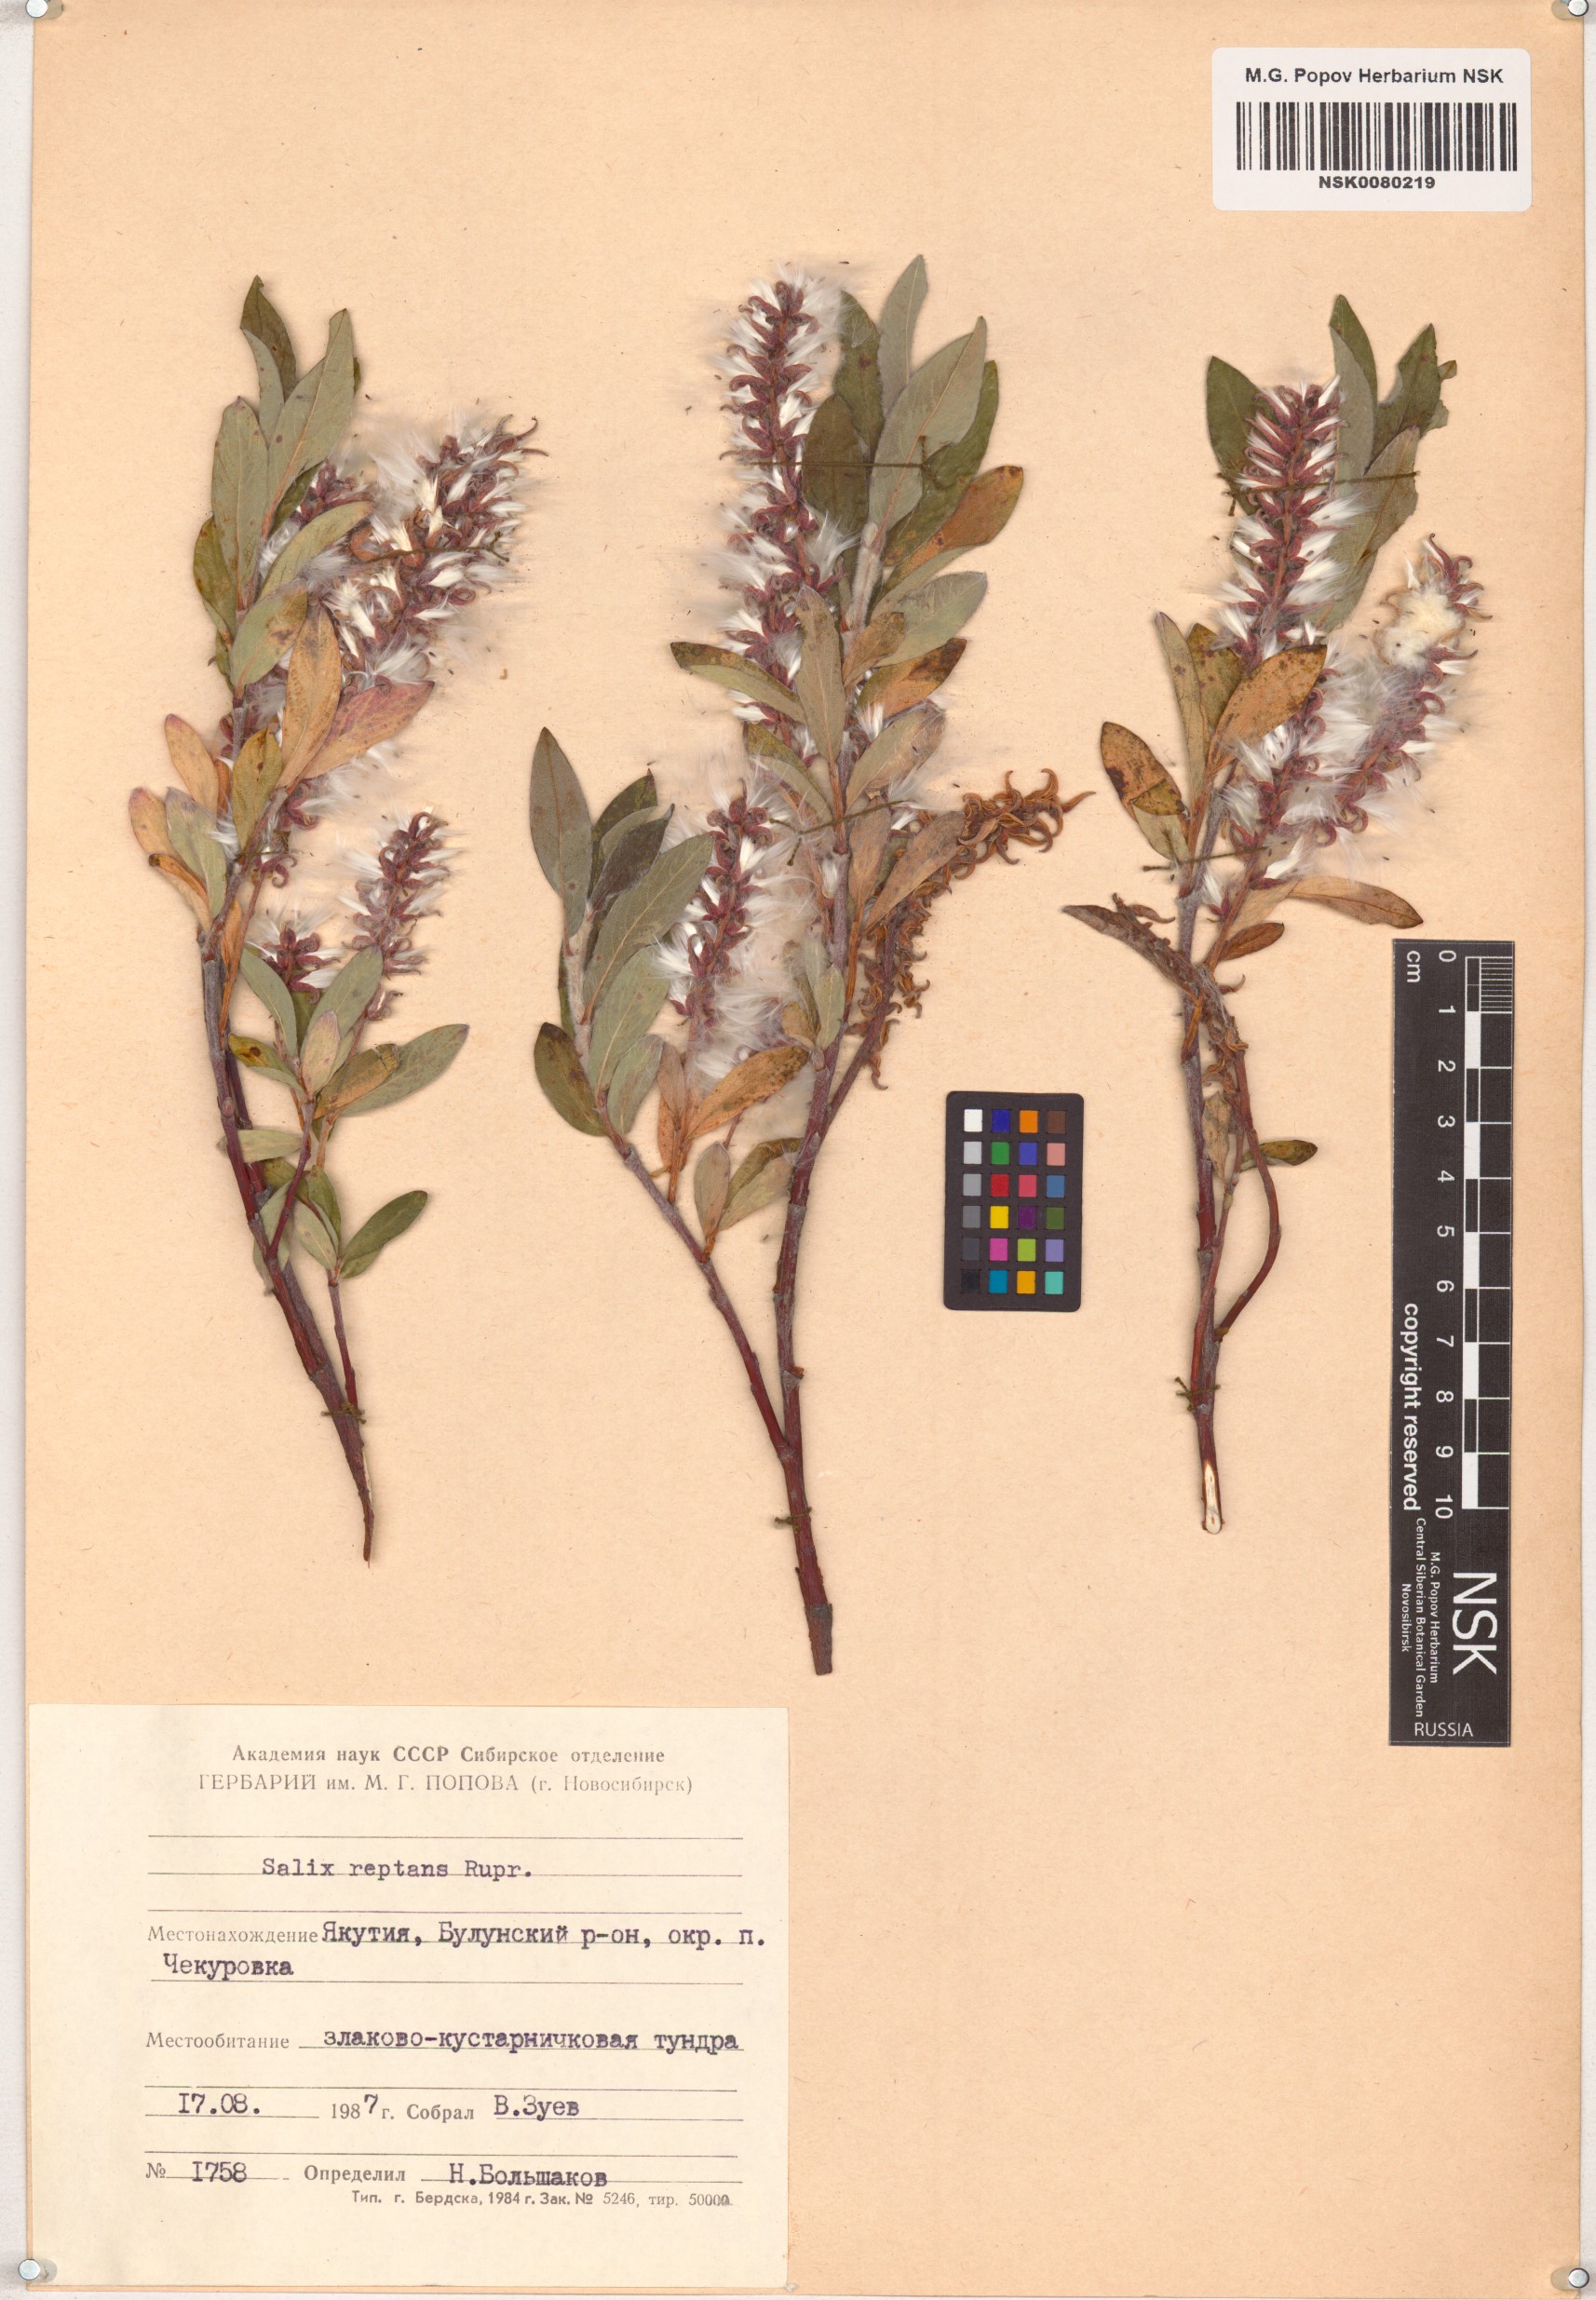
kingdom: Plantae
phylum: Tracheophyta
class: Magnoliopsida
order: Malpighiales
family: Salicaceae
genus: Salix
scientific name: Salix reptans
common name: Arctic creeping willow
